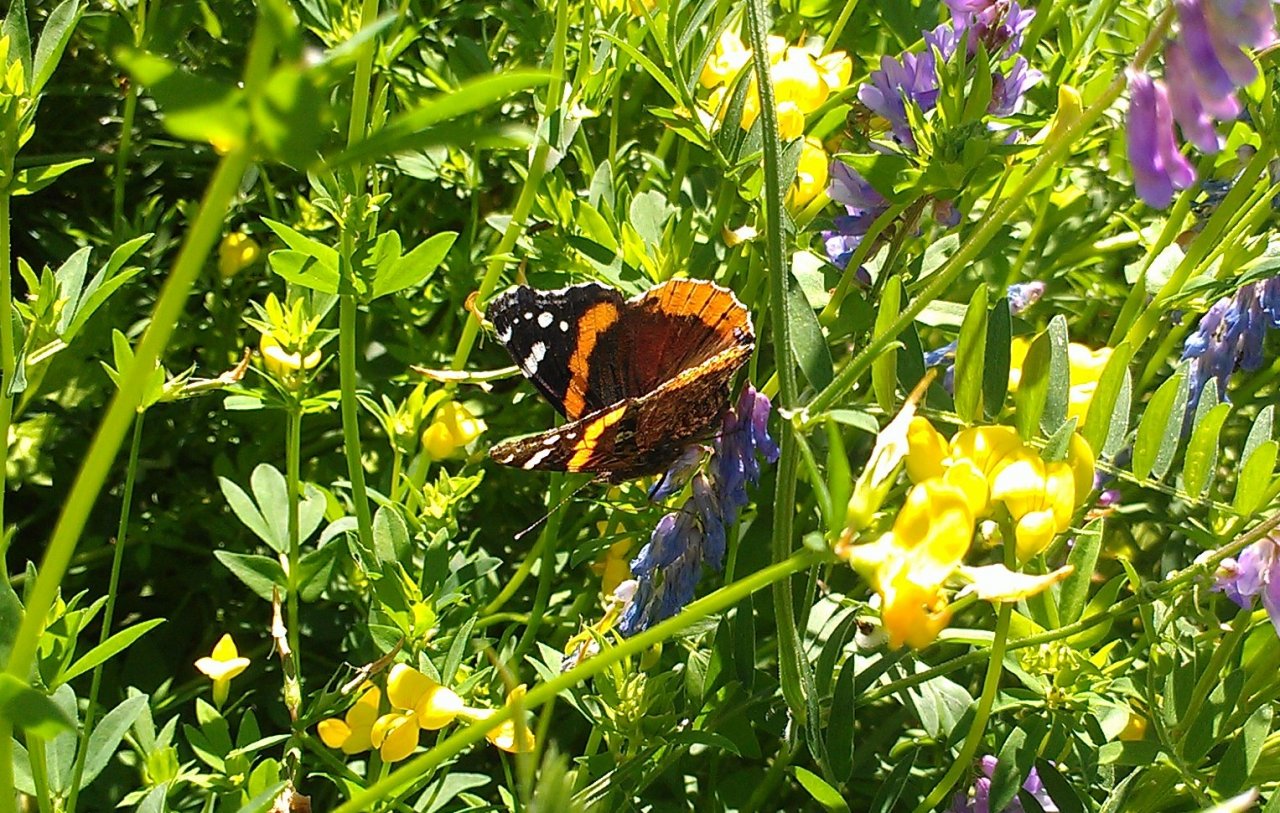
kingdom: Animalia
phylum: Arthropoda
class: Insecta
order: Lepidoptera
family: Nymphalidae
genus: Vanessa
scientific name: Vanessa atalanta
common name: Red Admiral
